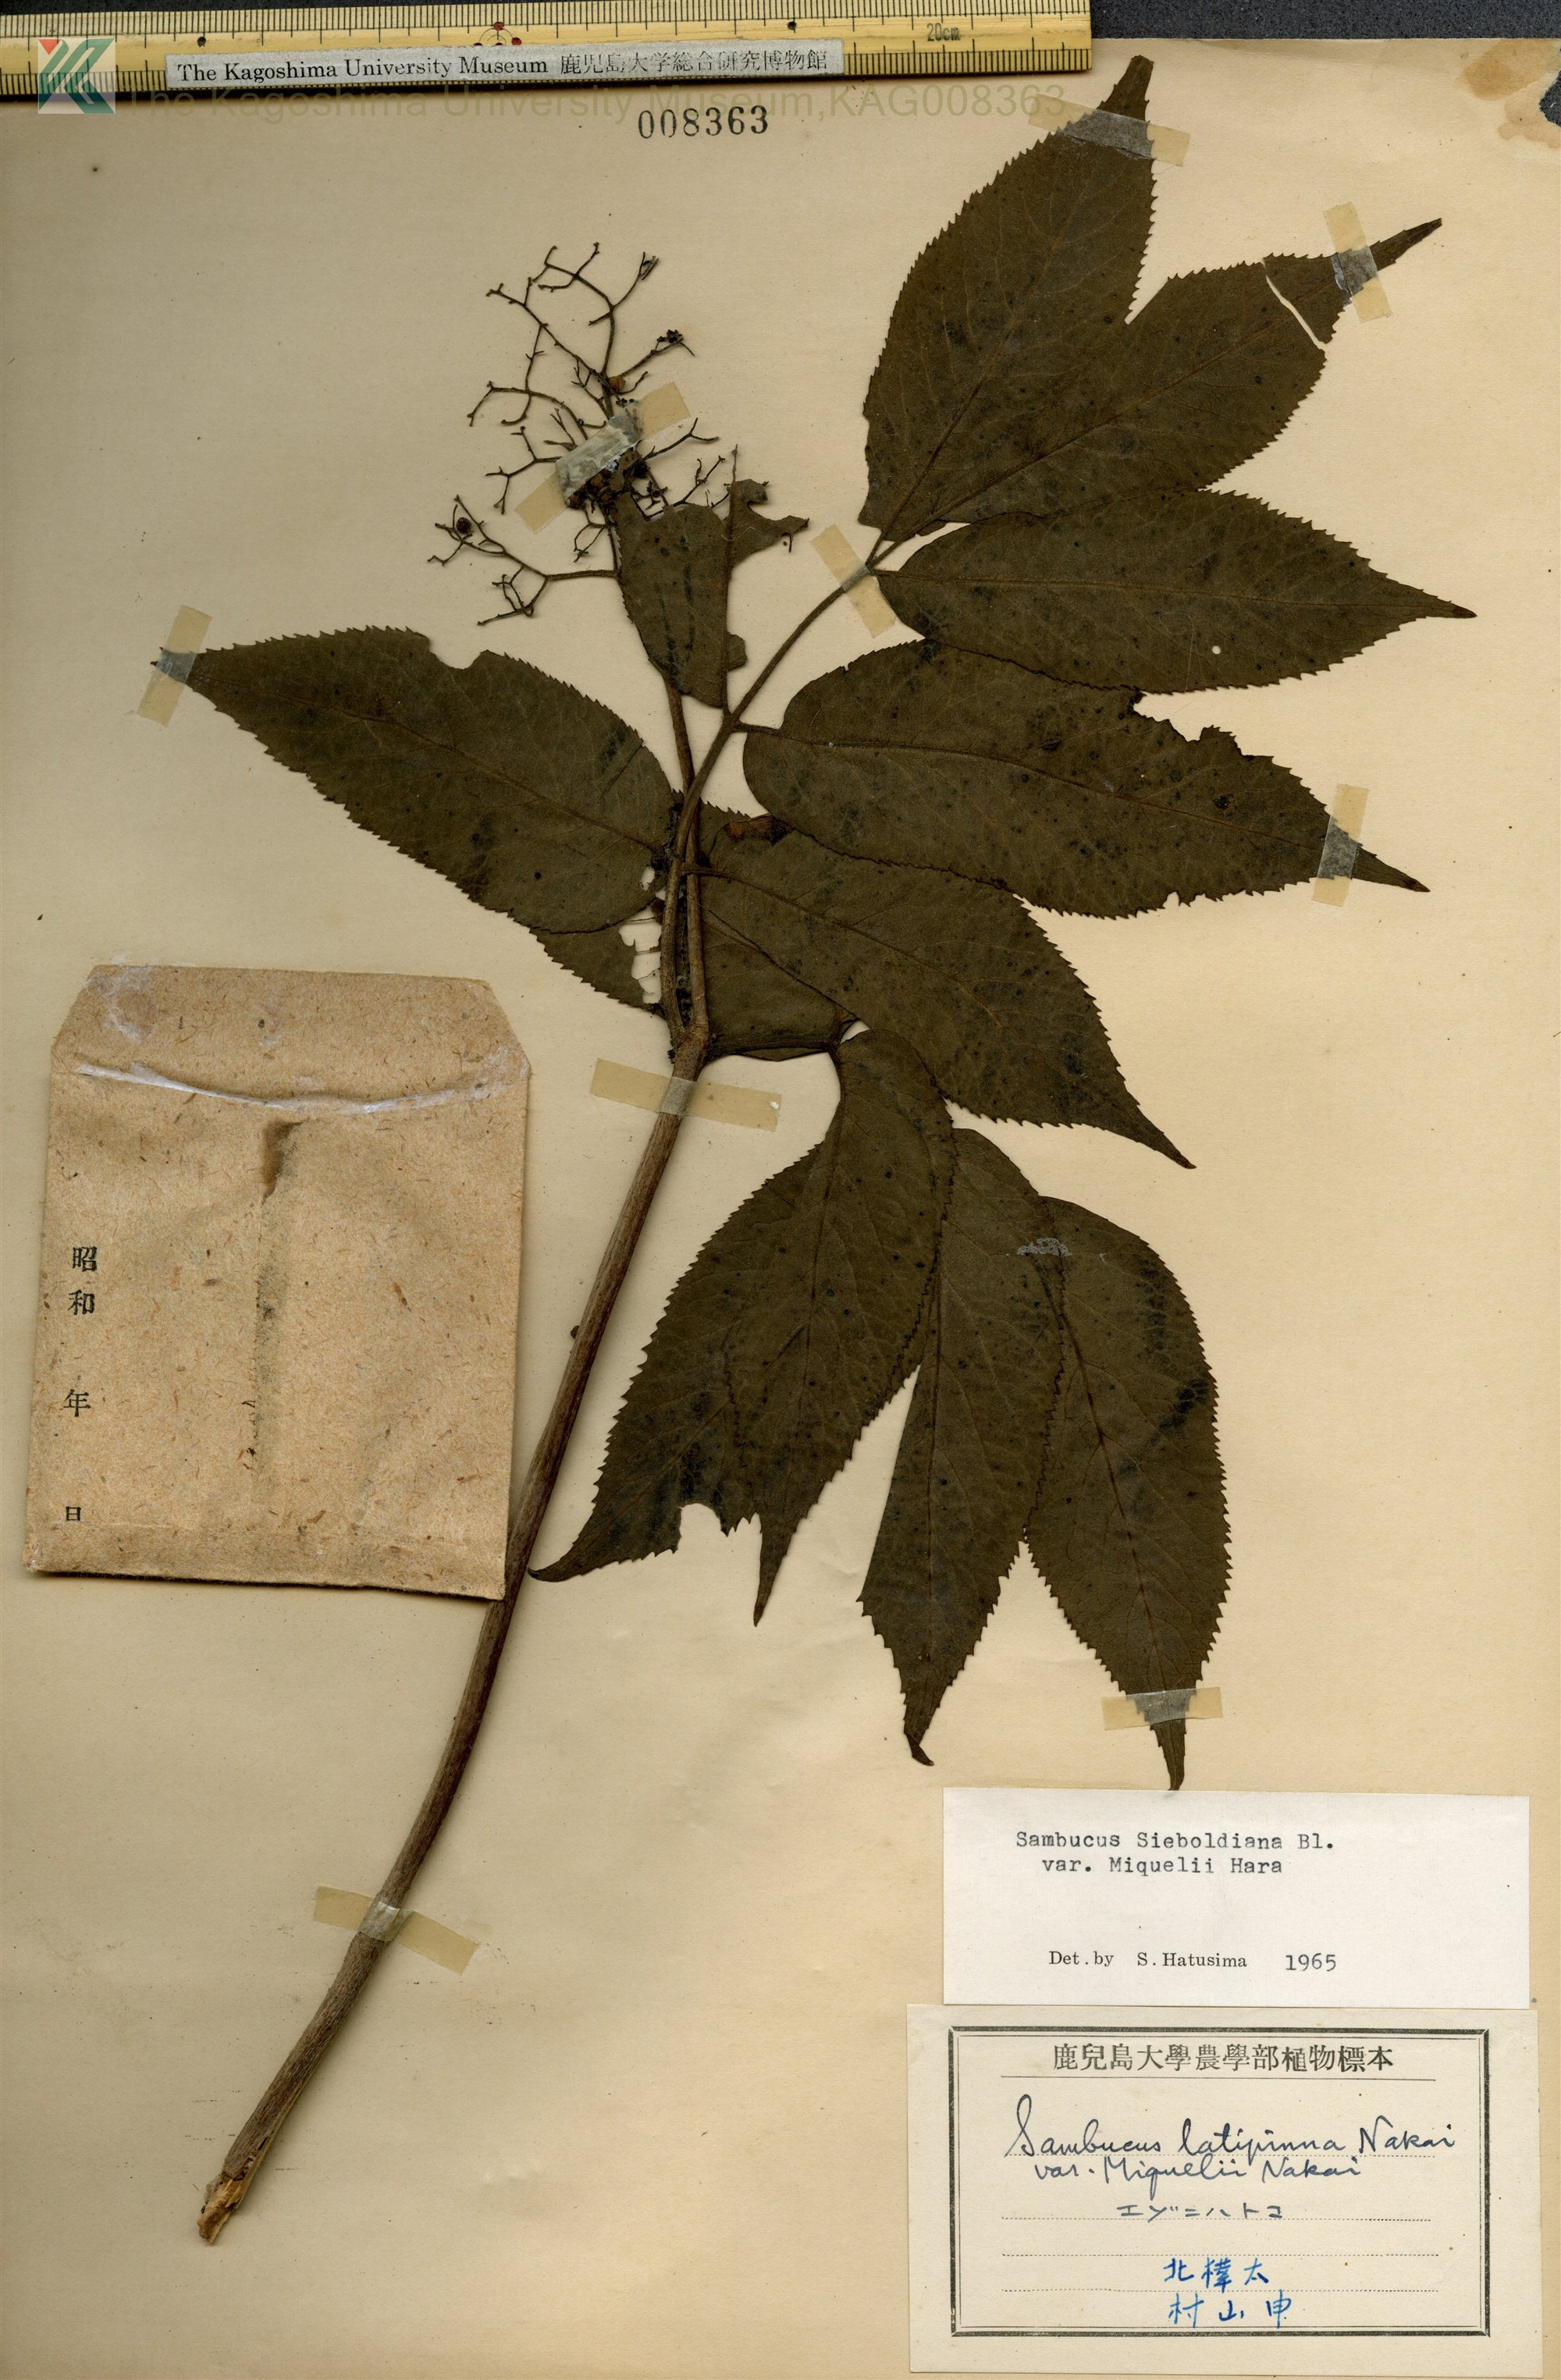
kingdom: Plantae
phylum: Tracheophyta
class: Magnoliopsida
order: Dipsacales
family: Viburnaceae
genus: Sambucus
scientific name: Sambucus kamtschatica
